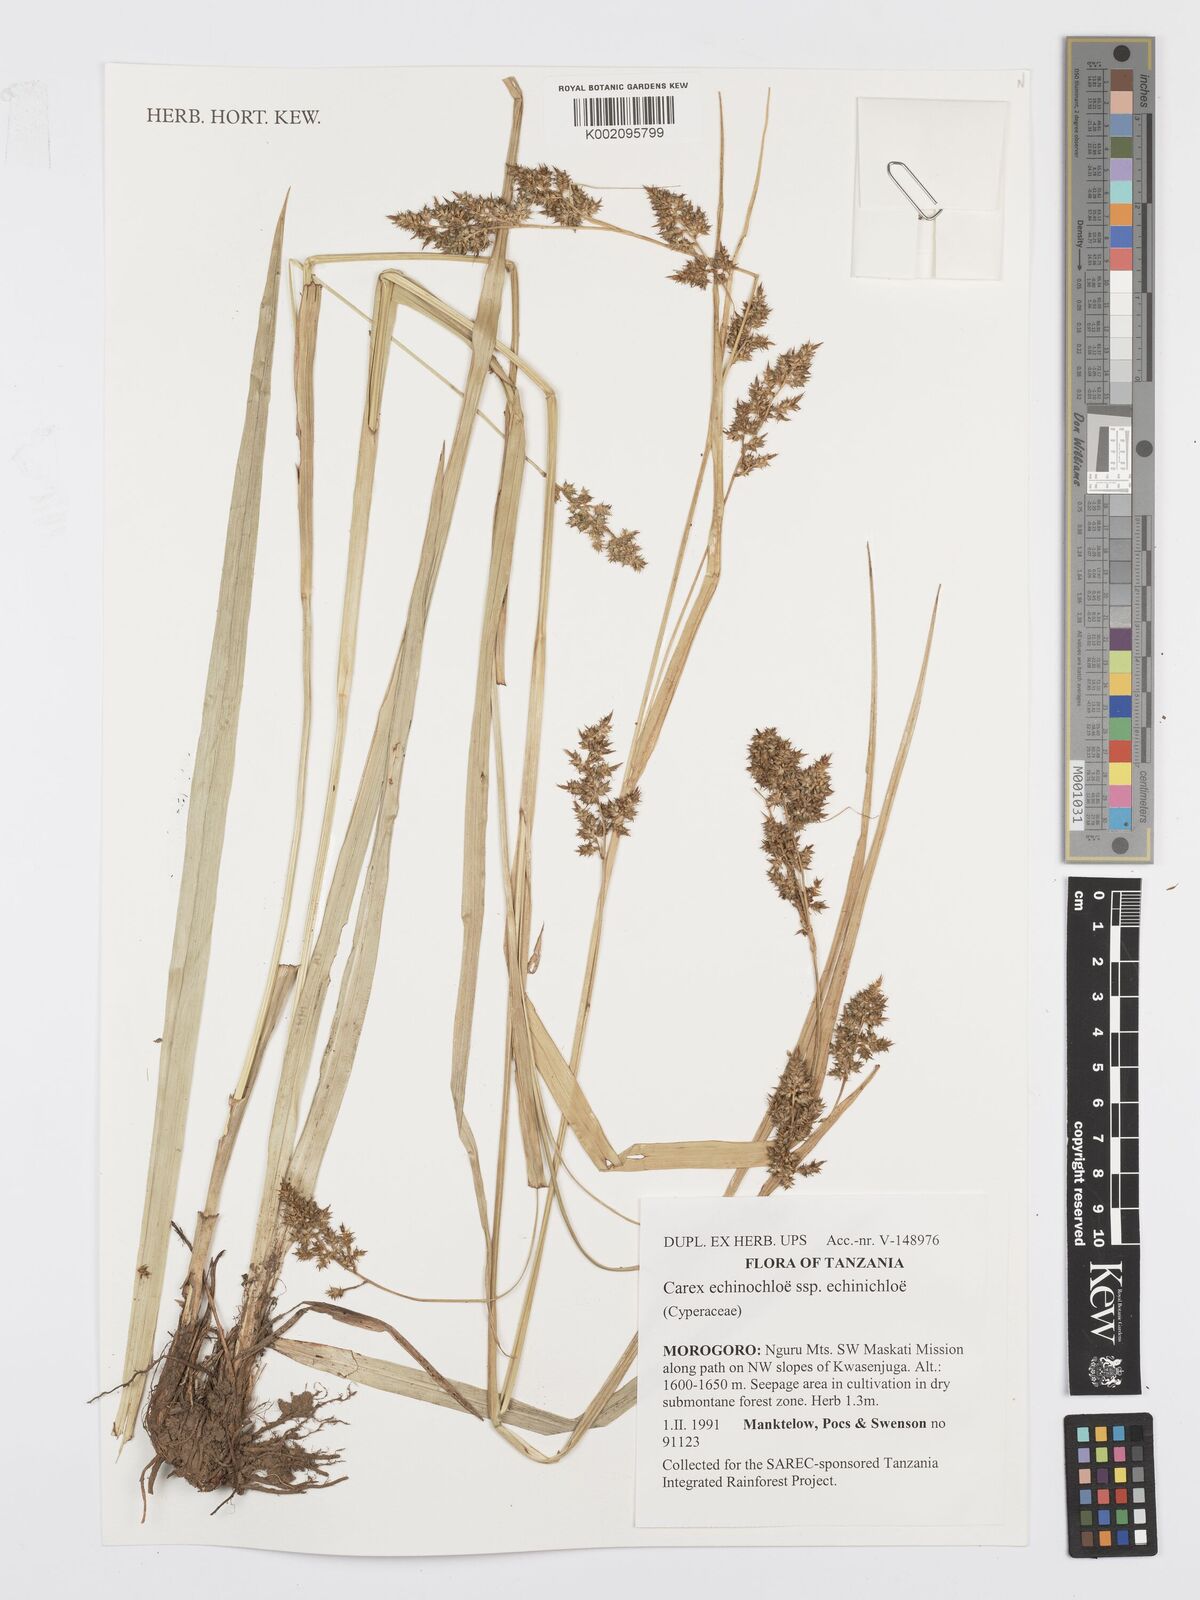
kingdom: Plantae
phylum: Tracheophyta
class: Liliopsida
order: Poales
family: Cyperaceae
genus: Carex
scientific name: Carex echinochloe
